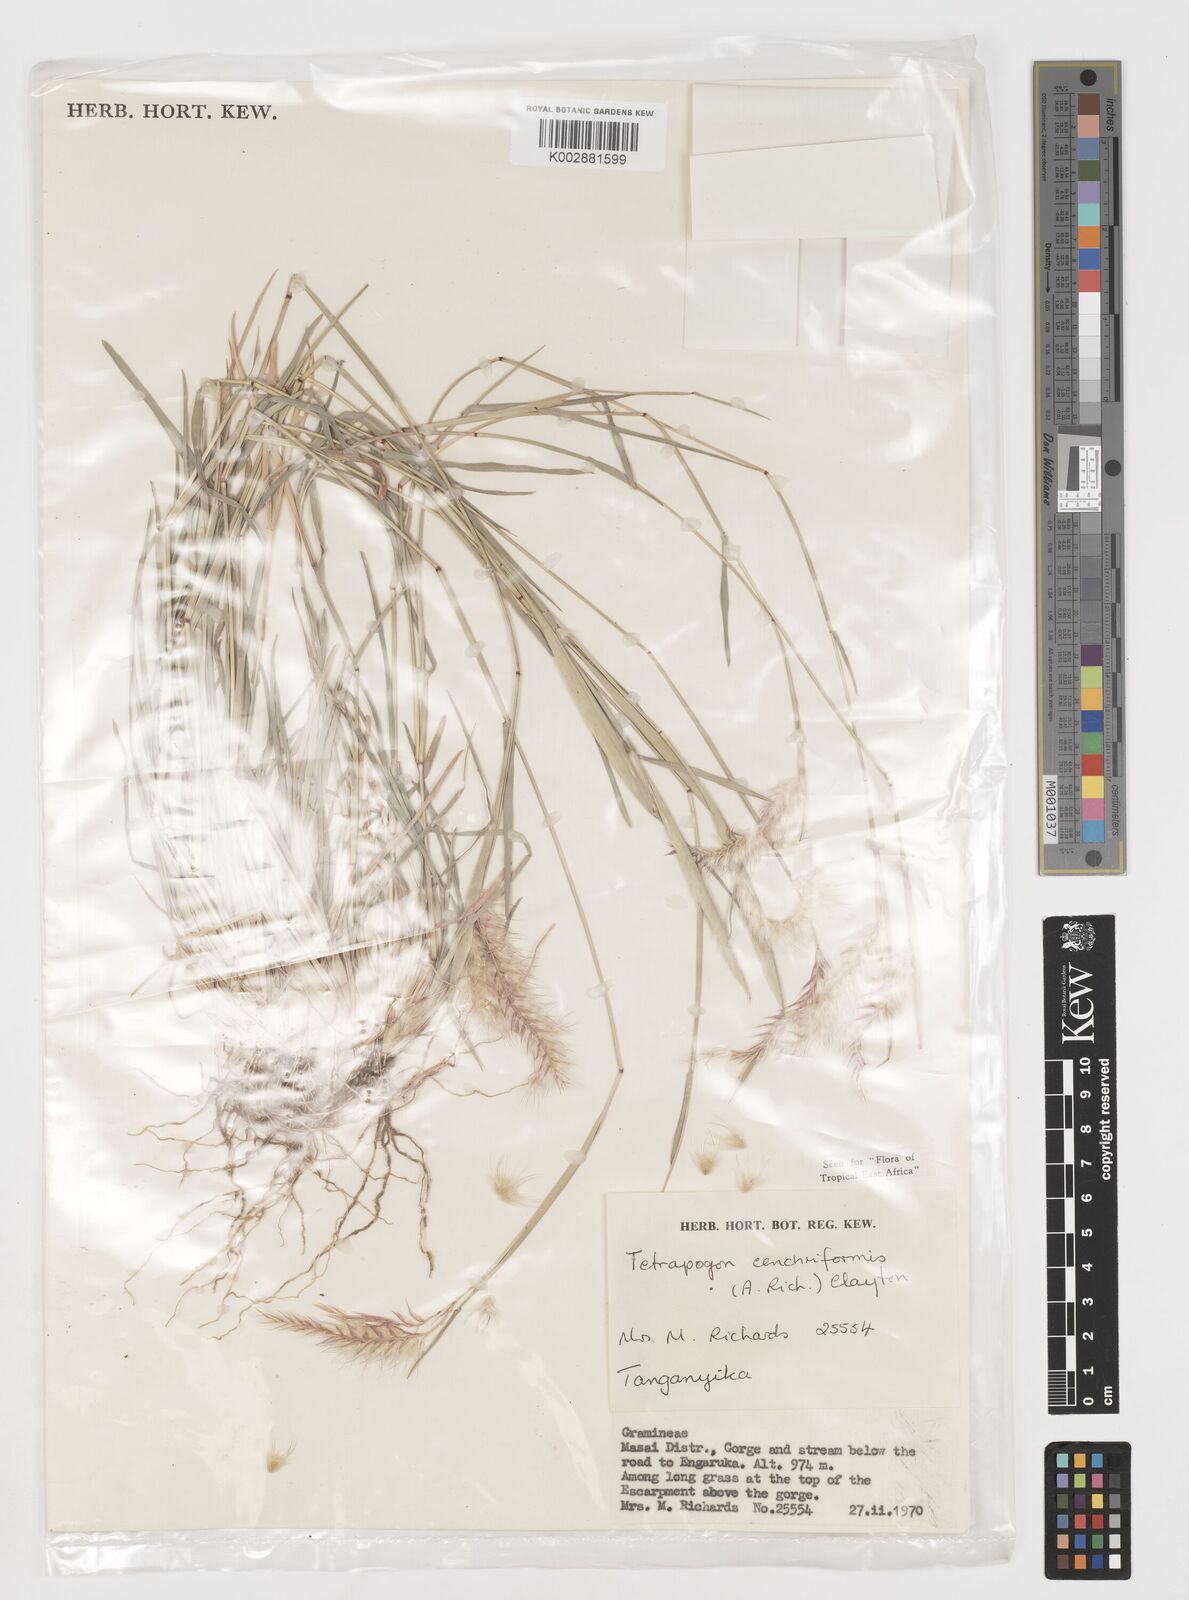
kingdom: Plantae
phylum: Tracheophyta
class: Liliopsida
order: Poales
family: Poaceae
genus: Tetrapogon
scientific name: Tetrapogon cenchriformis
